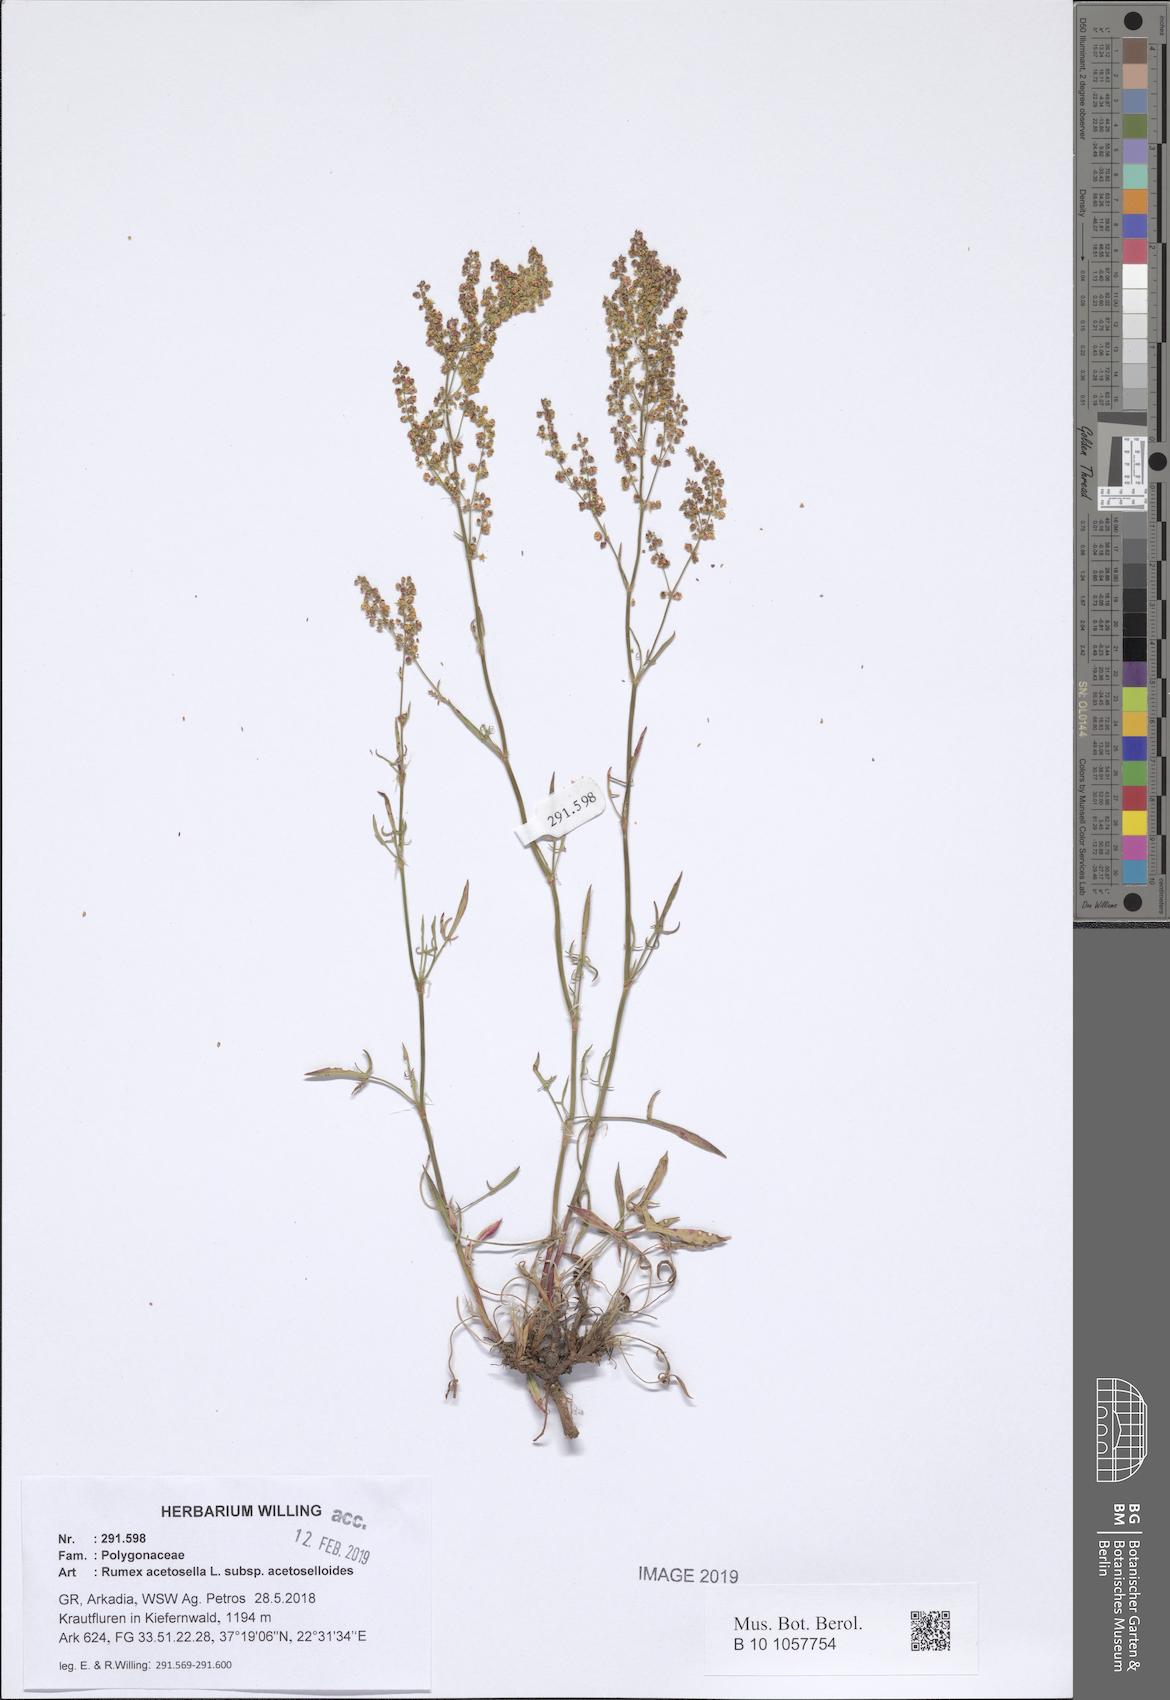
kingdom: Plantae
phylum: Tracheophyta
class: Magnoliopsida
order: Caryophyllales
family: Polygonaceae
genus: Rumex
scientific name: Rumex acetosella
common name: Common sheep sorrel
